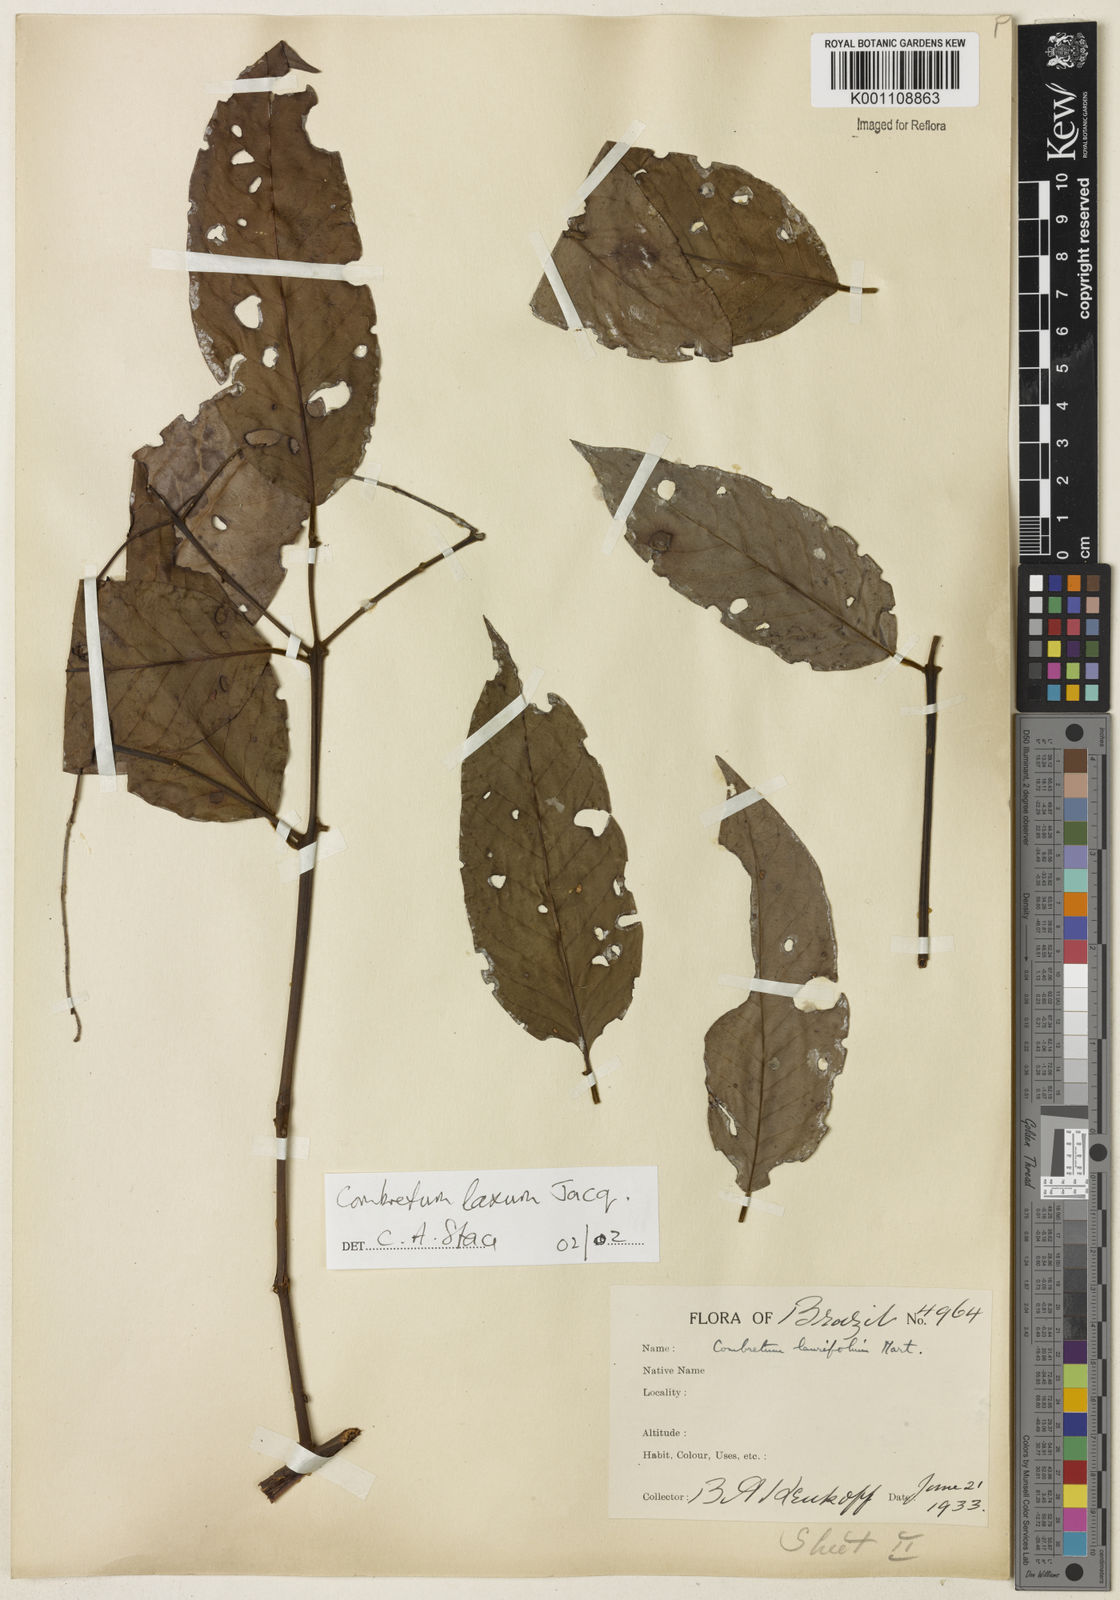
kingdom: Plantae
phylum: Tracheophyta
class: Magnoliopsida
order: Myrtales
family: Combretaceae
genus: Combretum
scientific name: Combretum laxum
